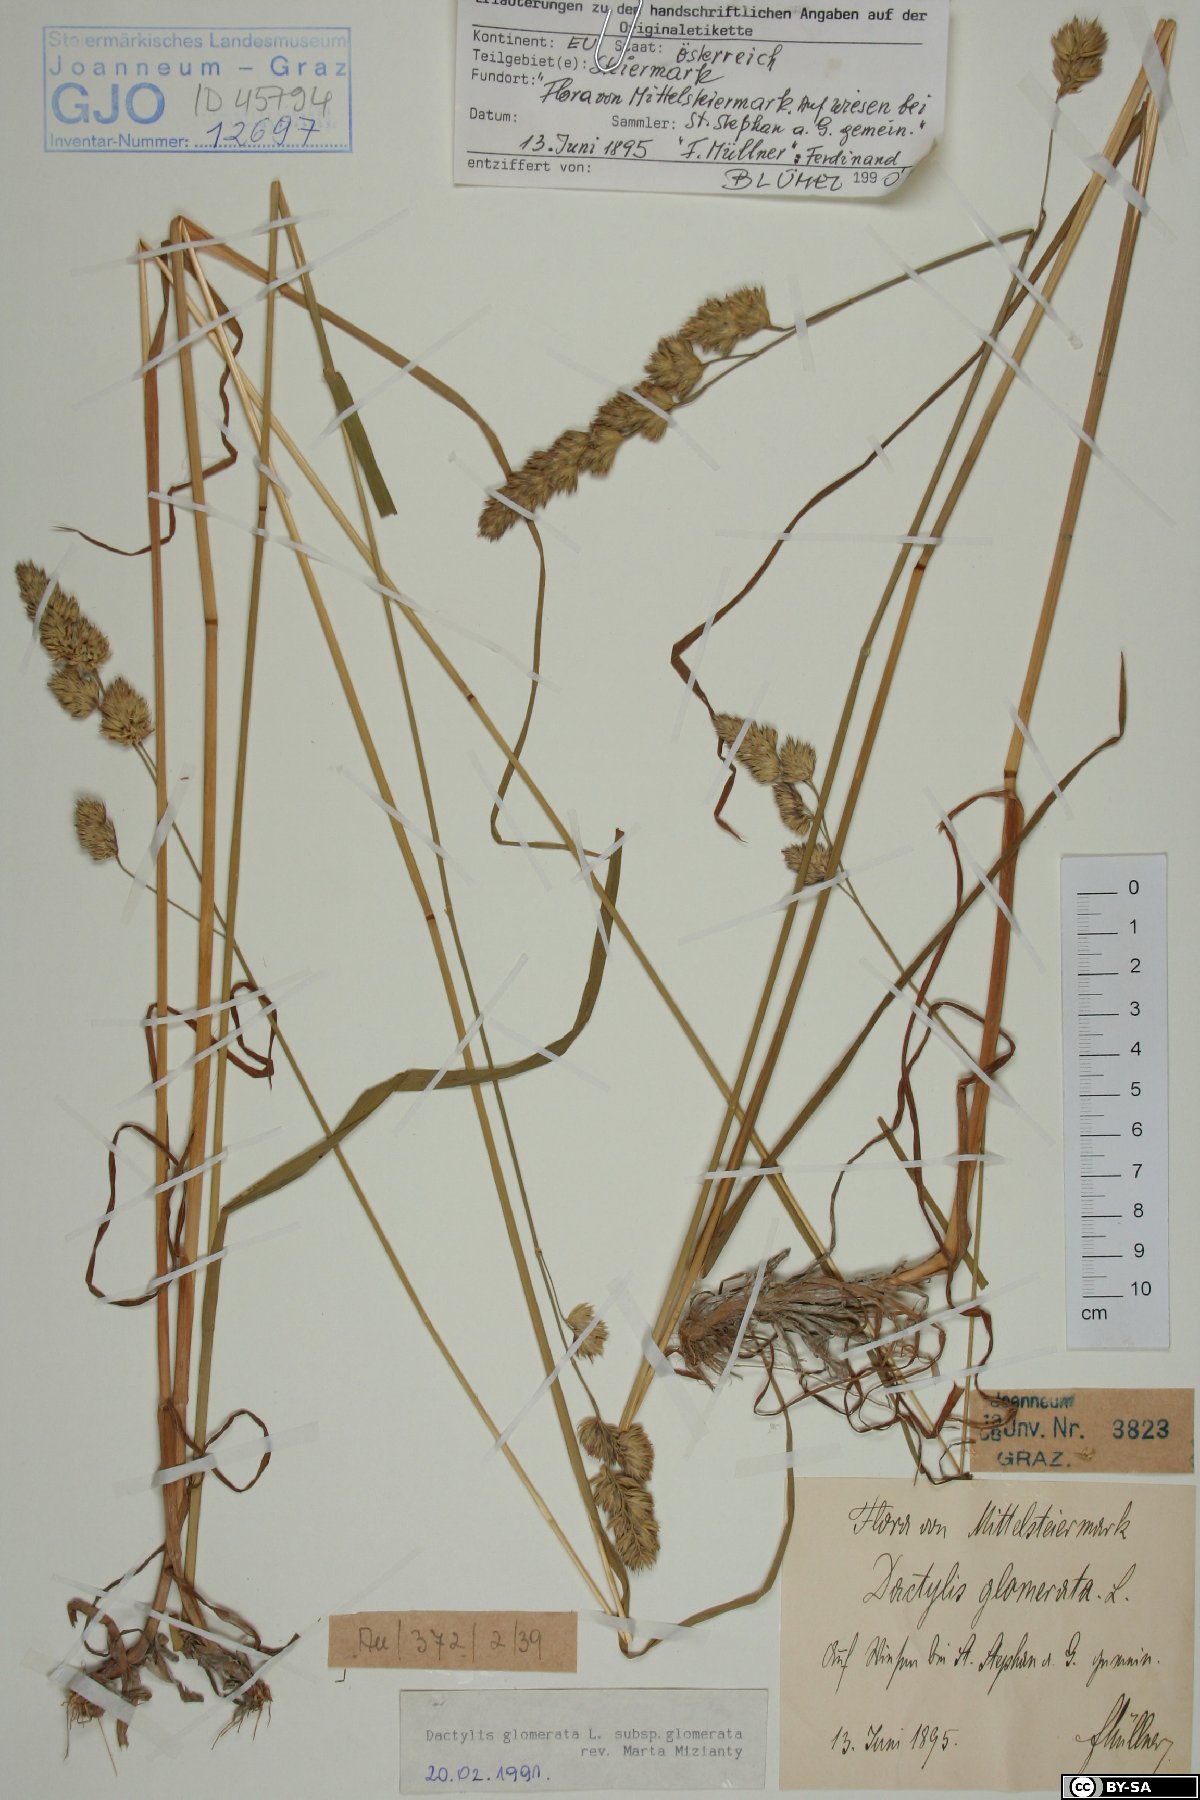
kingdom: Plantae
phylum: Tracheophyta
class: Liliopsida
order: Poales
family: Poaceae
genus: Dactylis
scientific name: Dactylis glomerata
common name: Orchardgrass
